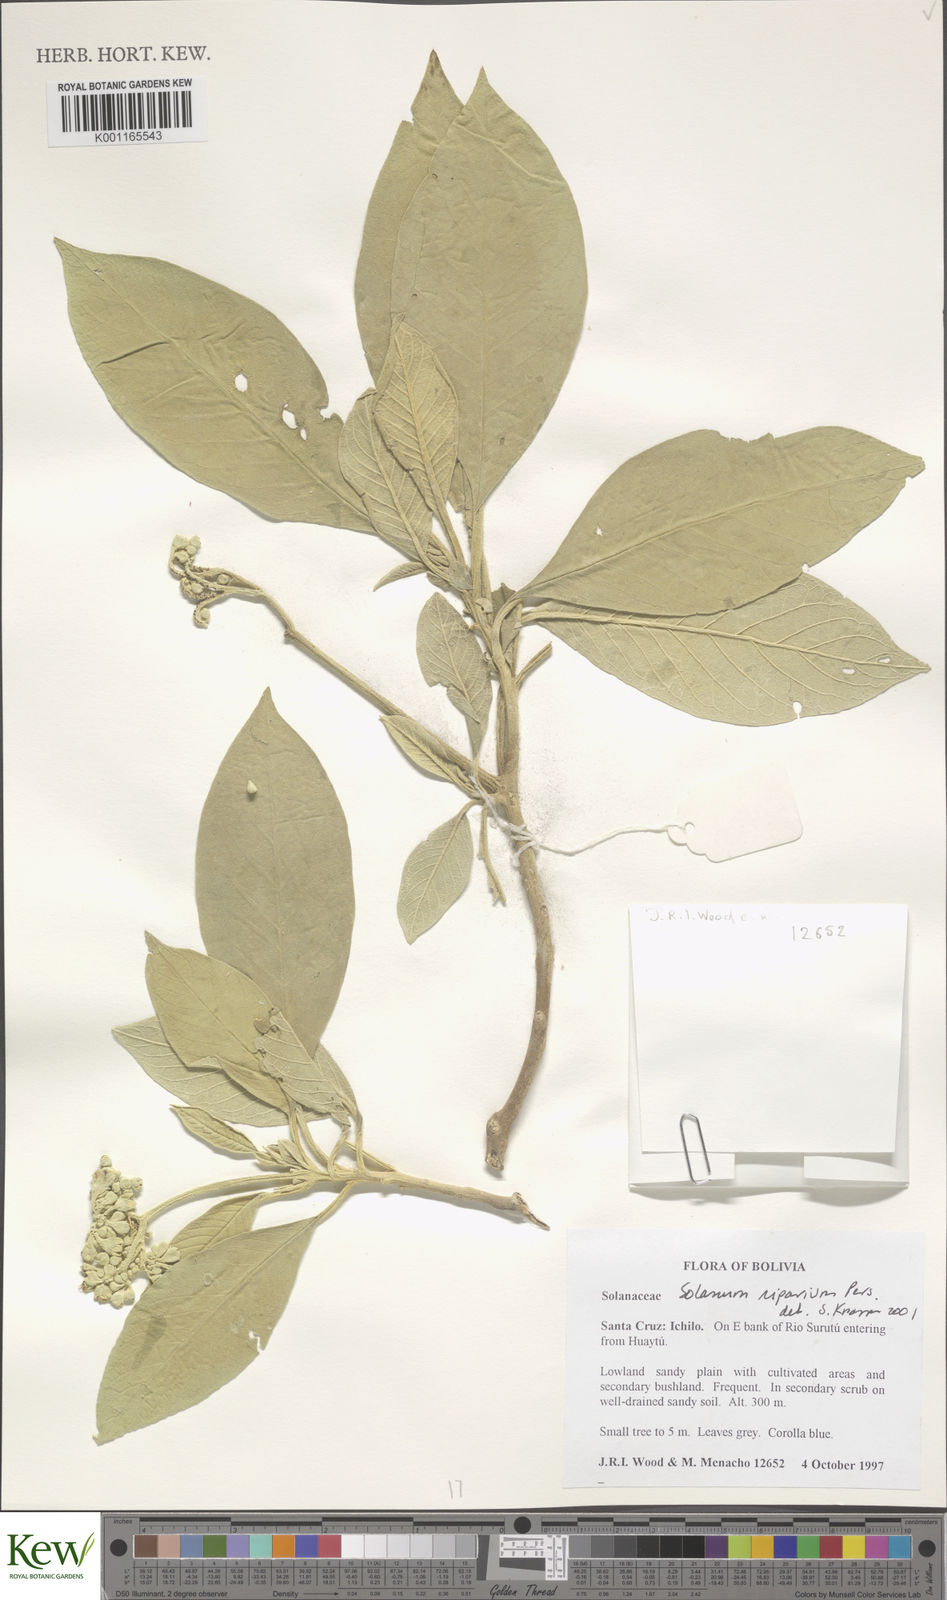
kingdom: Plantae
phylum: Tracheophyta
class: Magnoliopsida
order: Solanales
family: Solanaceae
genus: Solanum
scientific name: Solanum riparium
